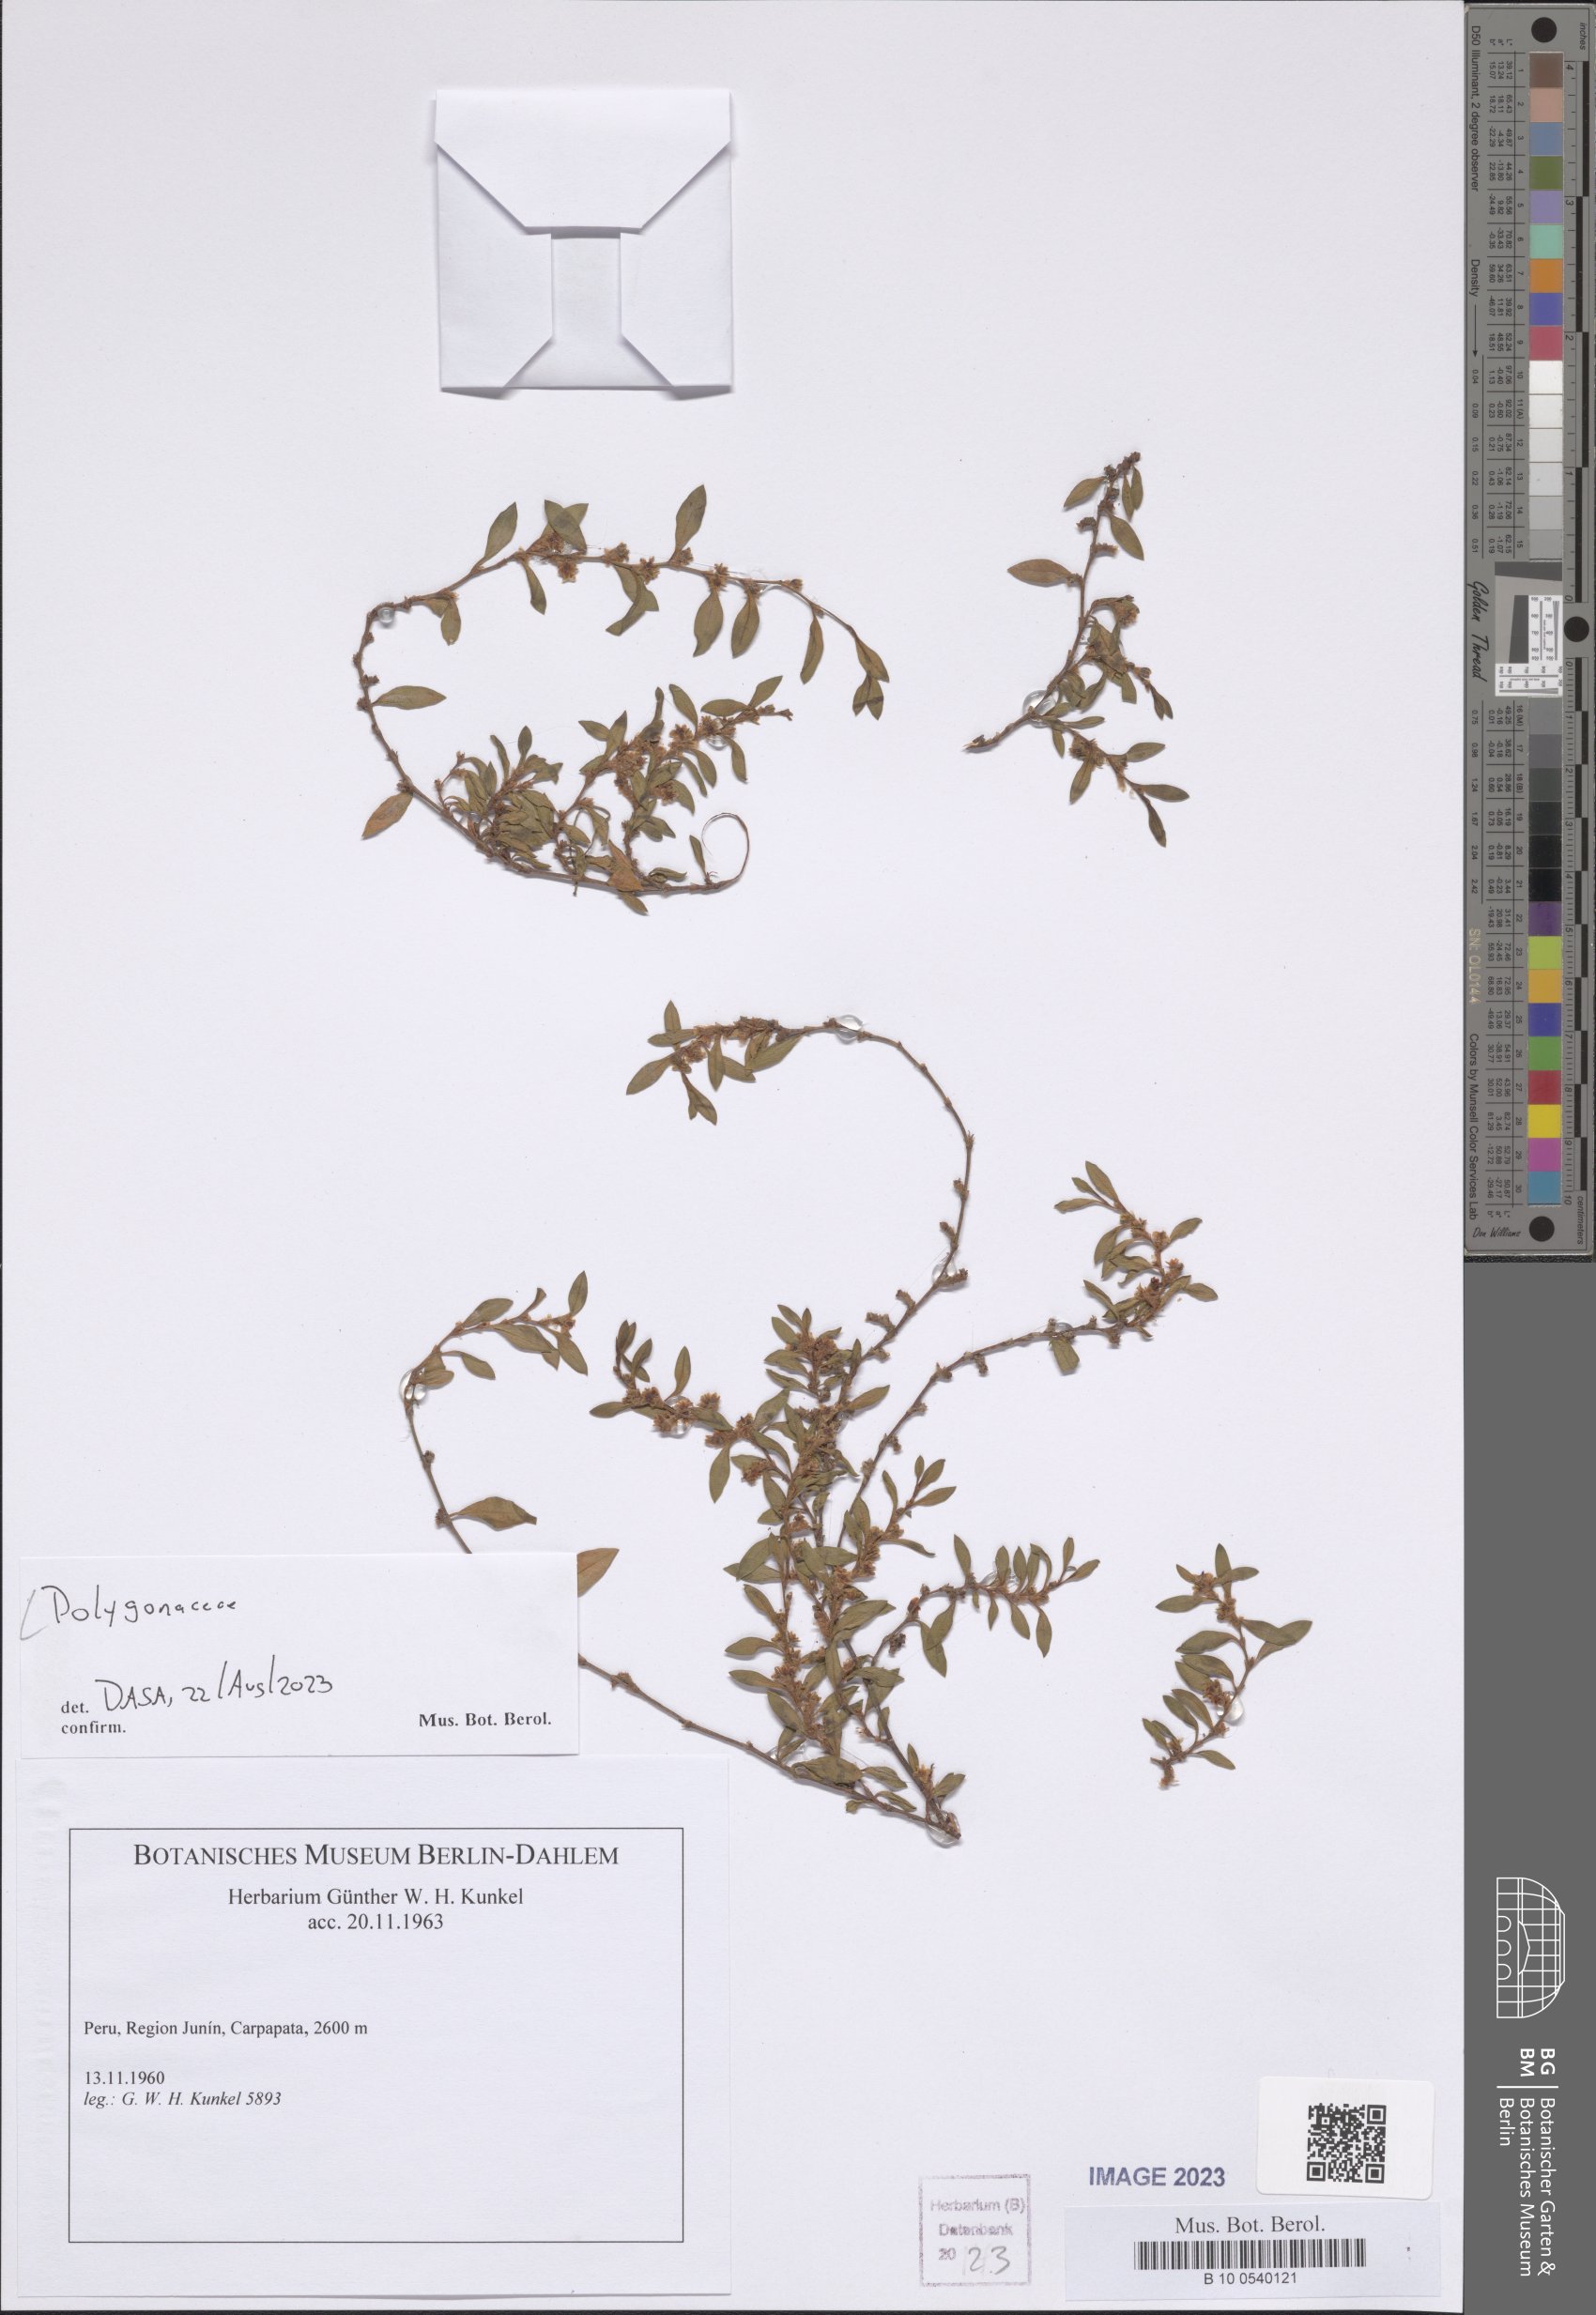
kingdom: Plantae
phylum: Tracheophyta
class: Magnoliopsida
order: Caryophyllales
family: Polygonaceae
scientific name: Polygonaceae
